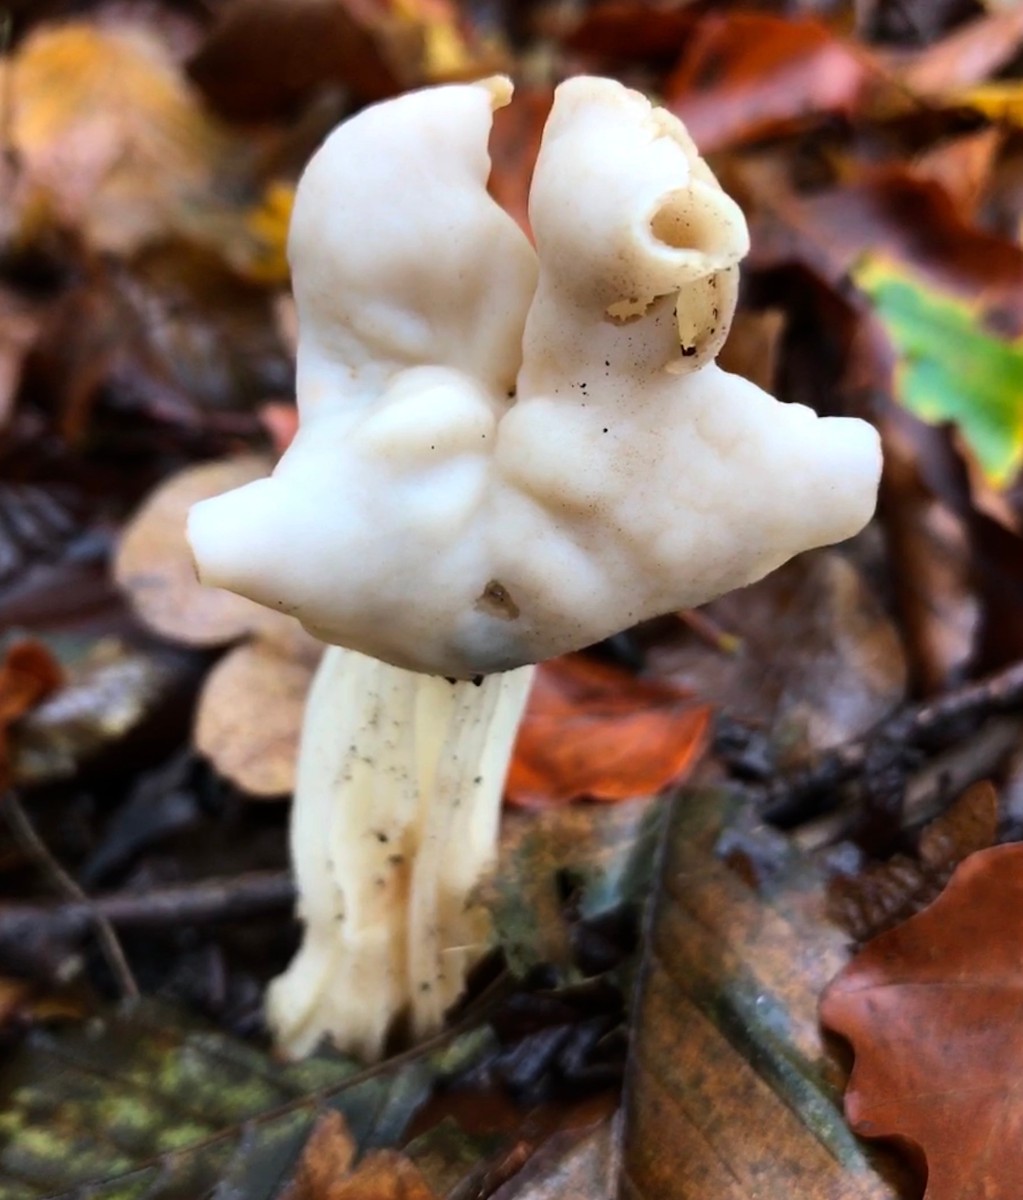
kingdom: Fungi
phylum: Ascomycota
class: Pezizomycetes
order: Pezizales
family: Helvellaceae
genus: Helvella
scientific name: Helvella crispa
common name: kruset foldhat
